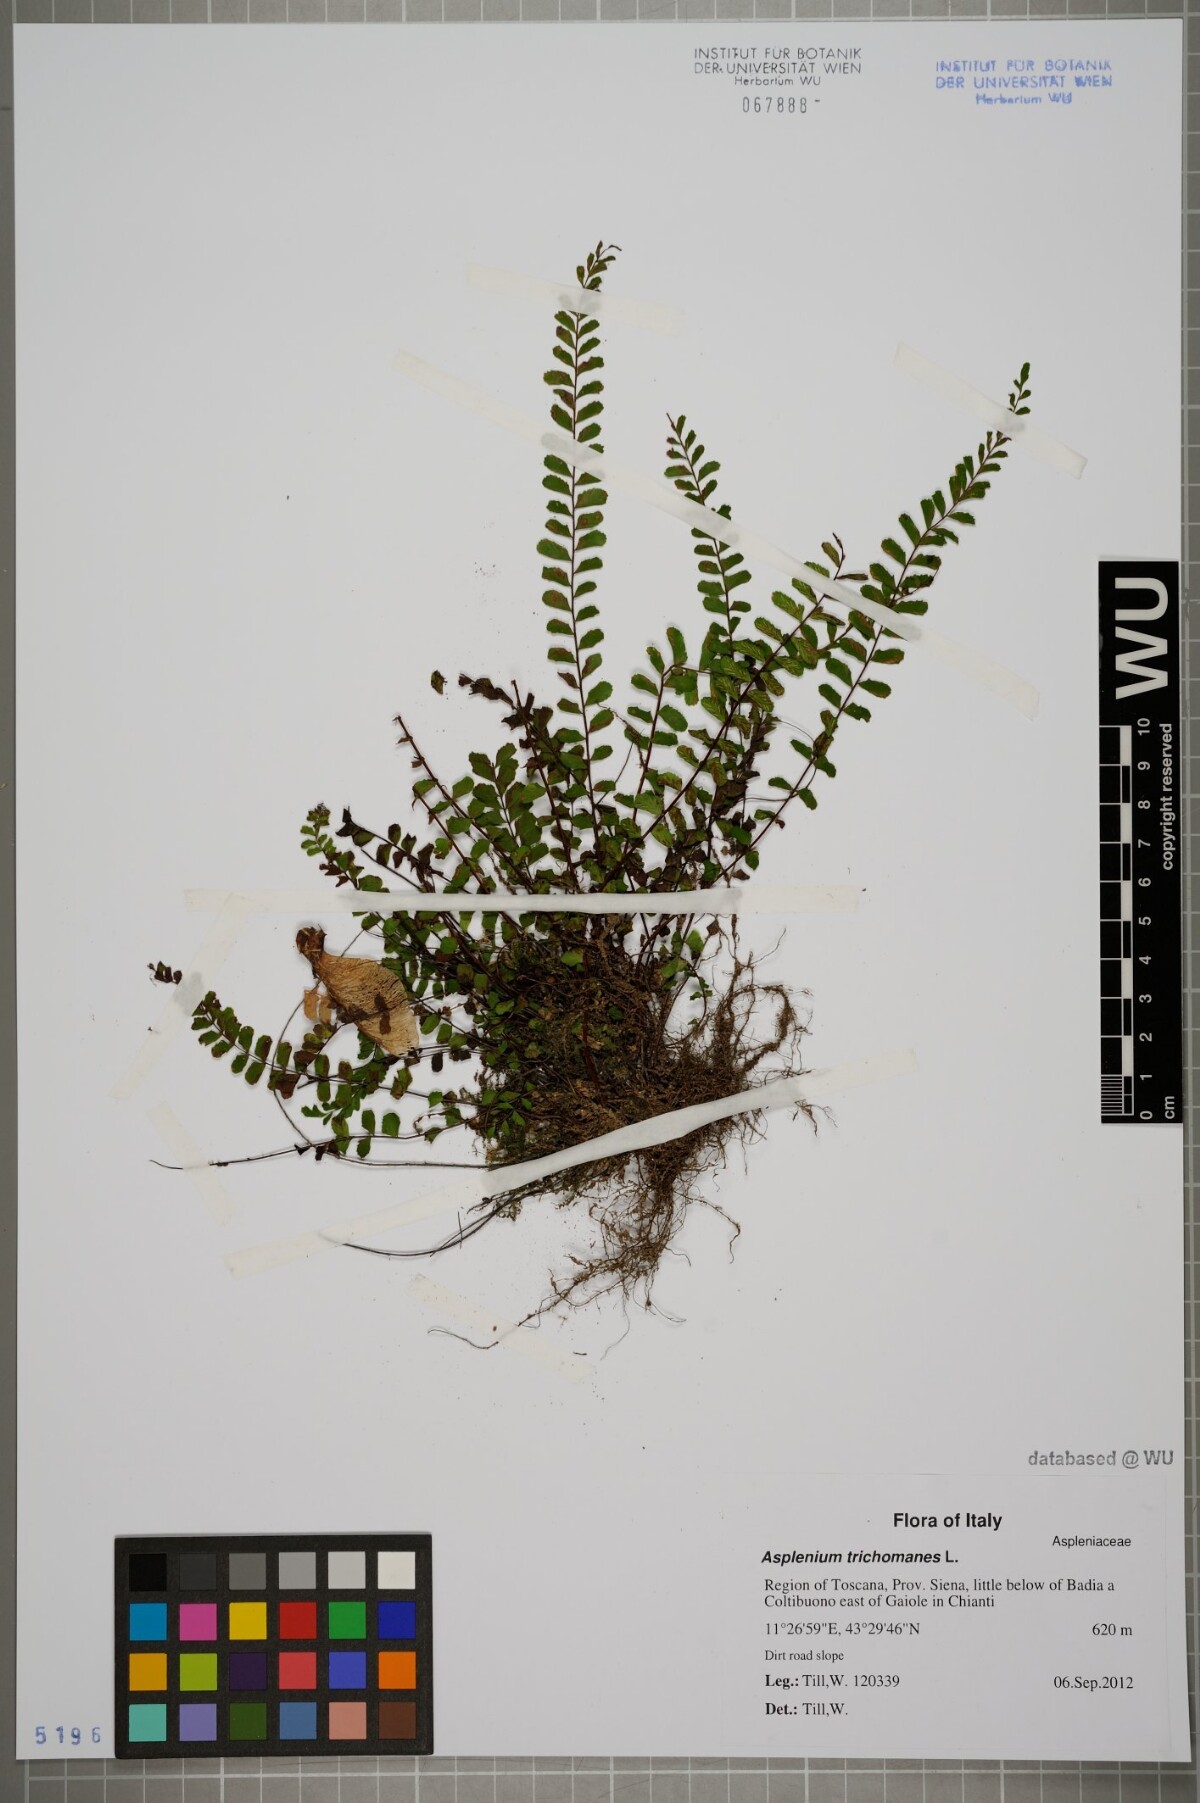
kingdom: Plantae
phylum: Tracheophyta
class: Polypodiopsida
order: Polypodiales
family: Aspleniaceae
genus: Asplenium
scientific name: Asplenium trichomanes
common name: Maidenhair spleenwort
